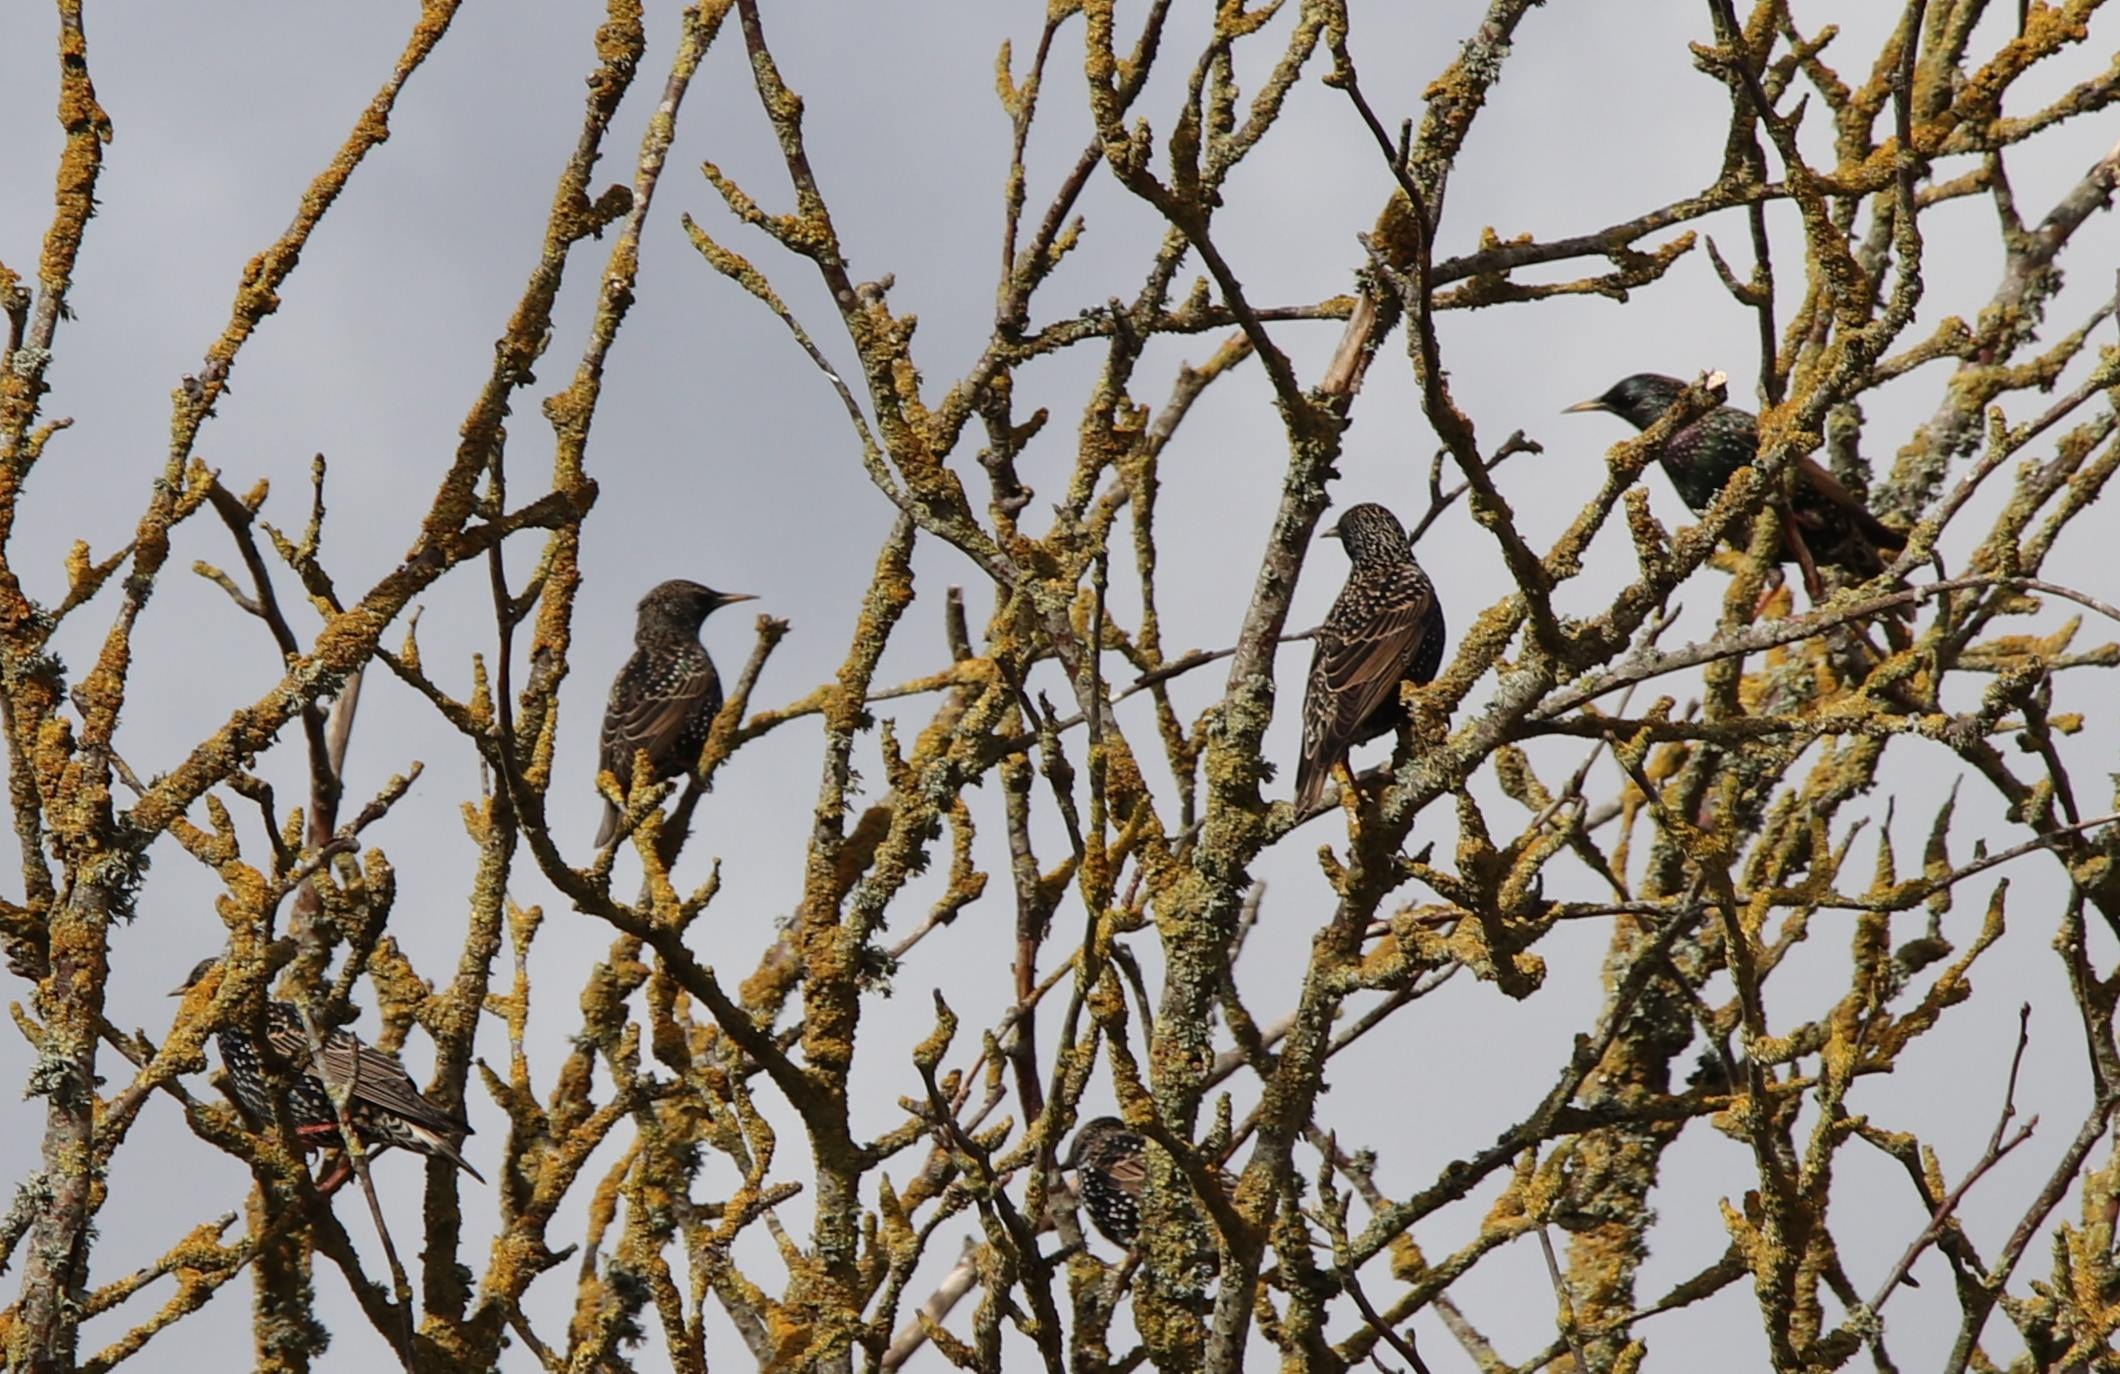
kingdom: Animalia
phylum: Chordata
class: Aves
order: Passeriformes
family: Sturnidae
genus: Sturnus
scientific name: Sturnus vulgaris
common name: Stær
